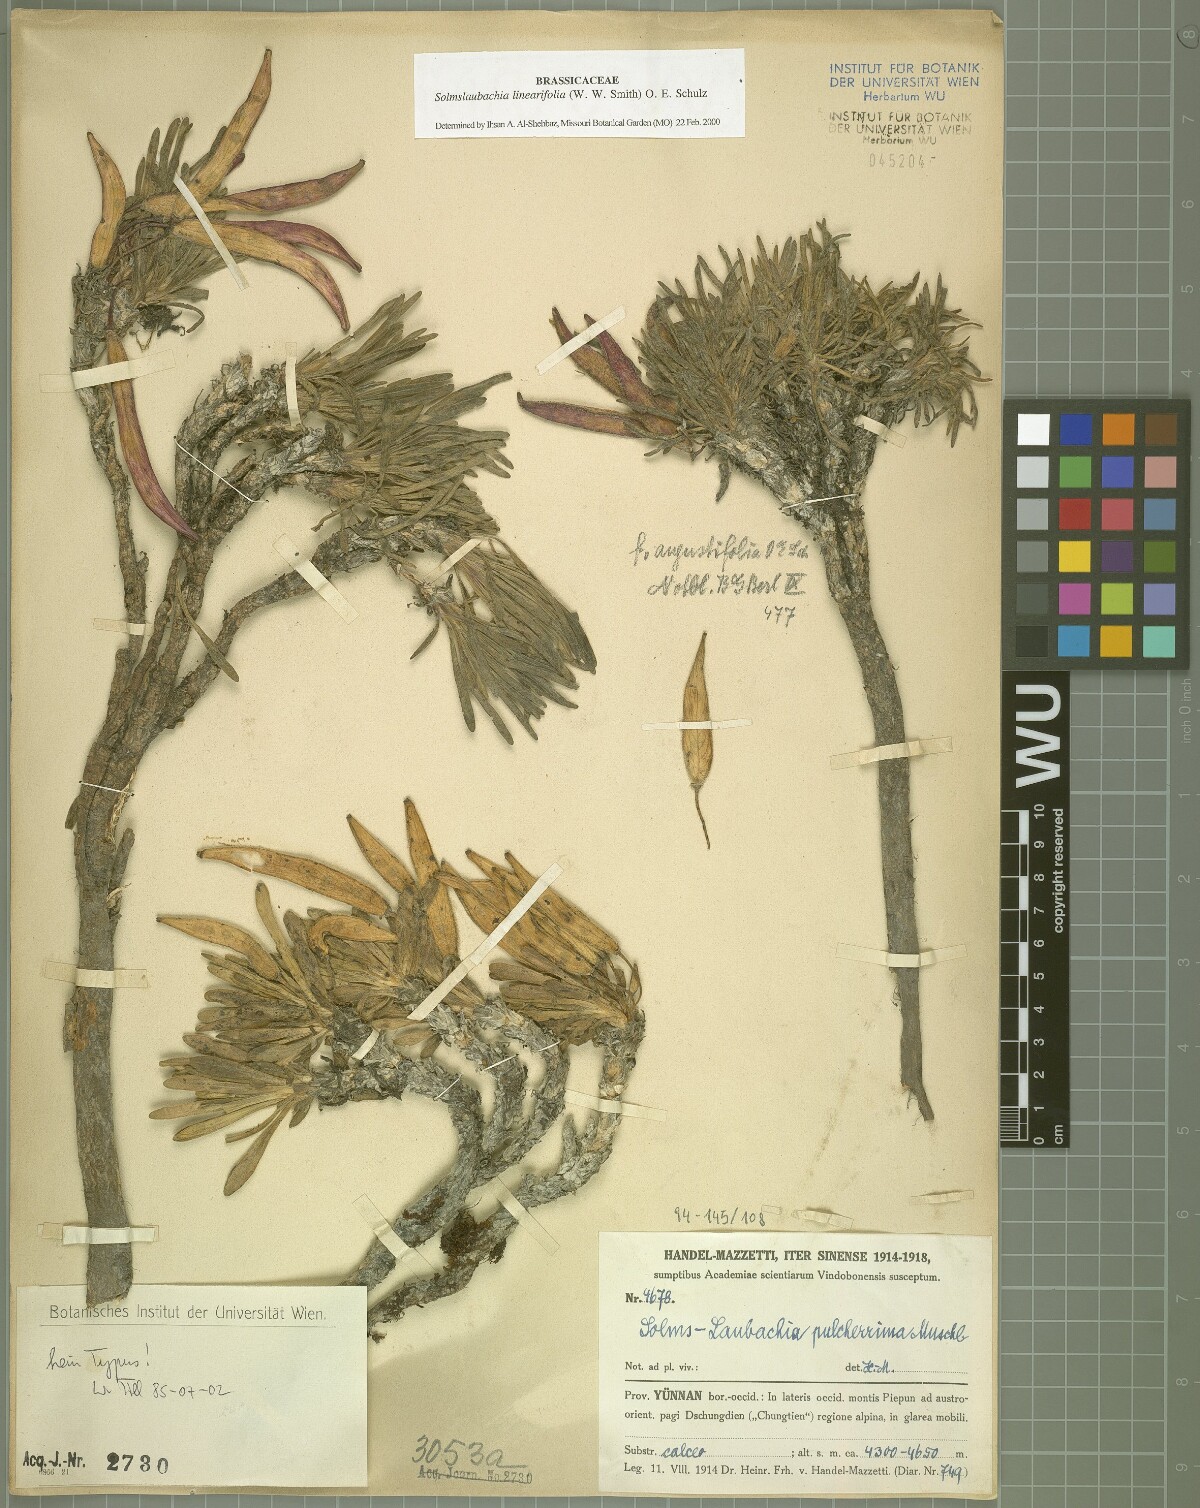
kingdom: Plantae
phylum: Tracheophyta
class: Magnoliopsida
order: Brassicales
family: Brassicaceae
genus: Solms-laubachia
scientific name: Solms-laubachia linearifolia
